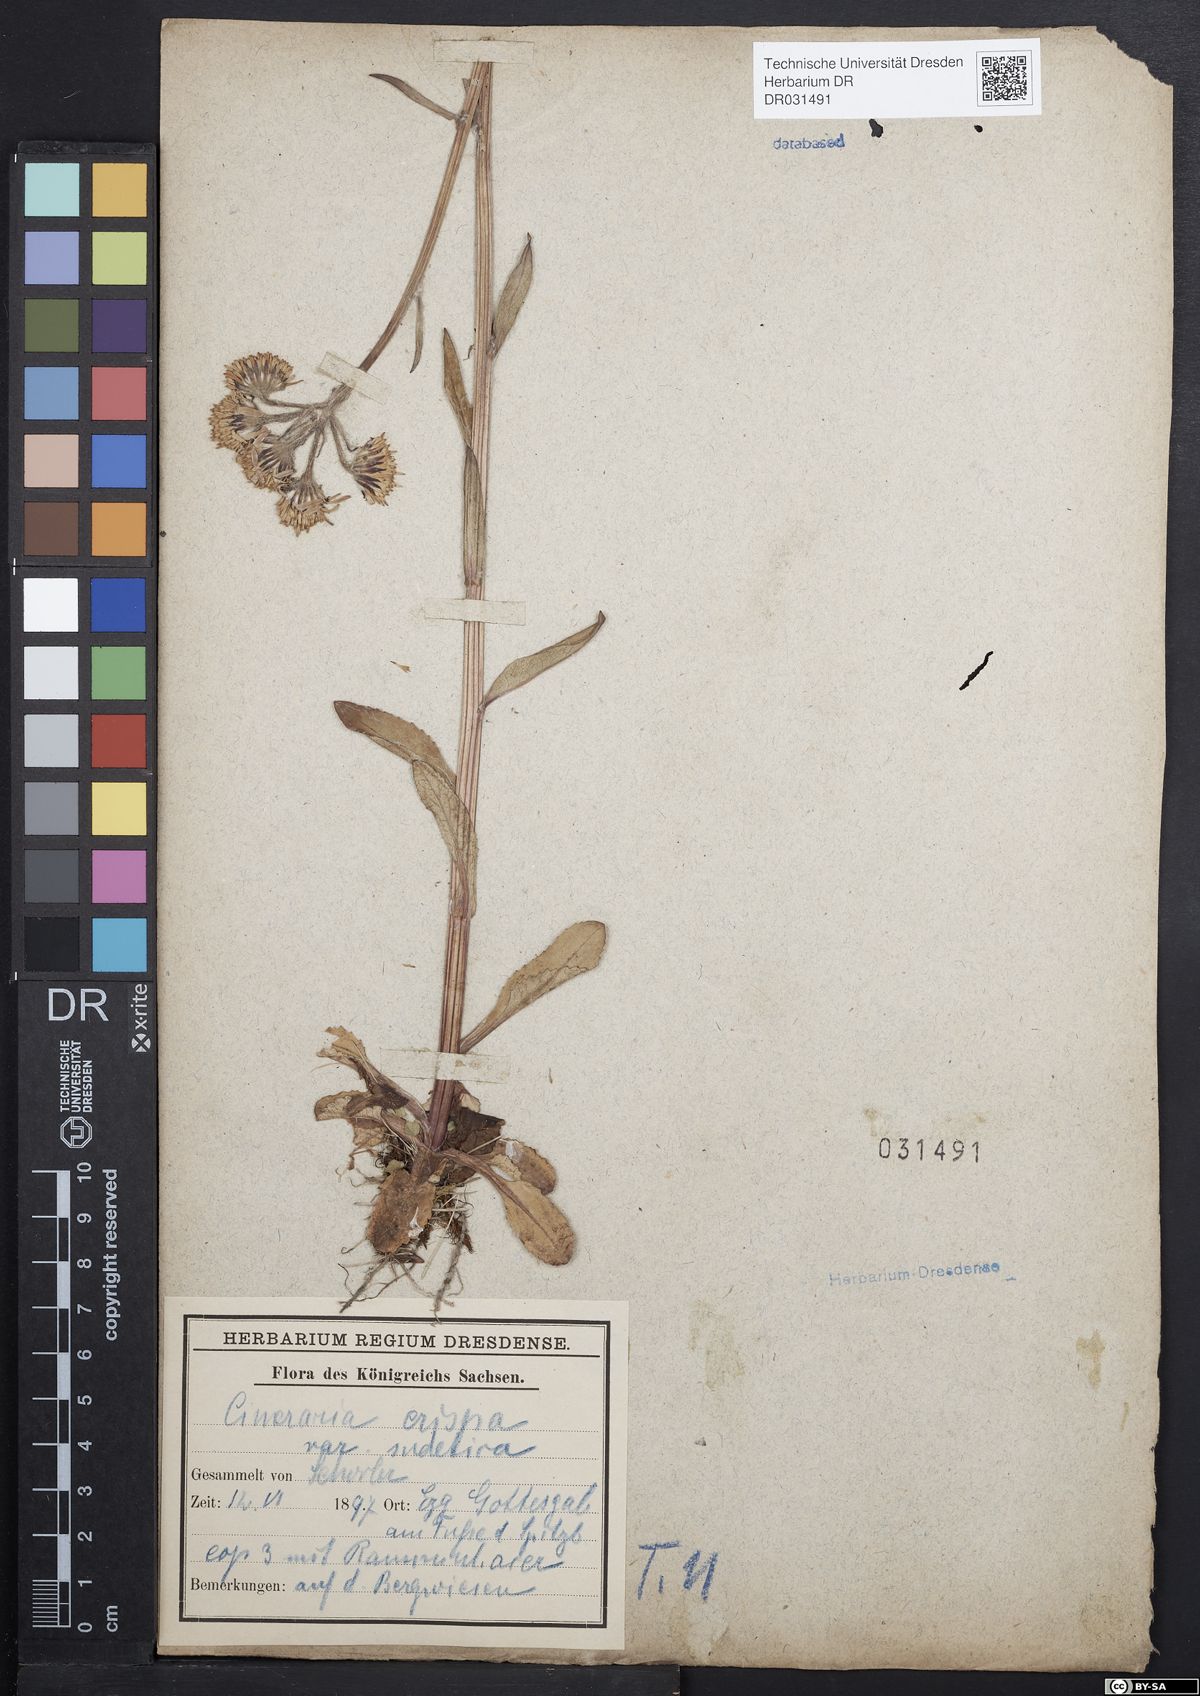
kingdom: Plantae
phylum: Tracheophyta
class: Magnoliopsida
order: Asterales
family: Asteraceae
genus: Tephroseris
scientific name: Tephroseris crispa
